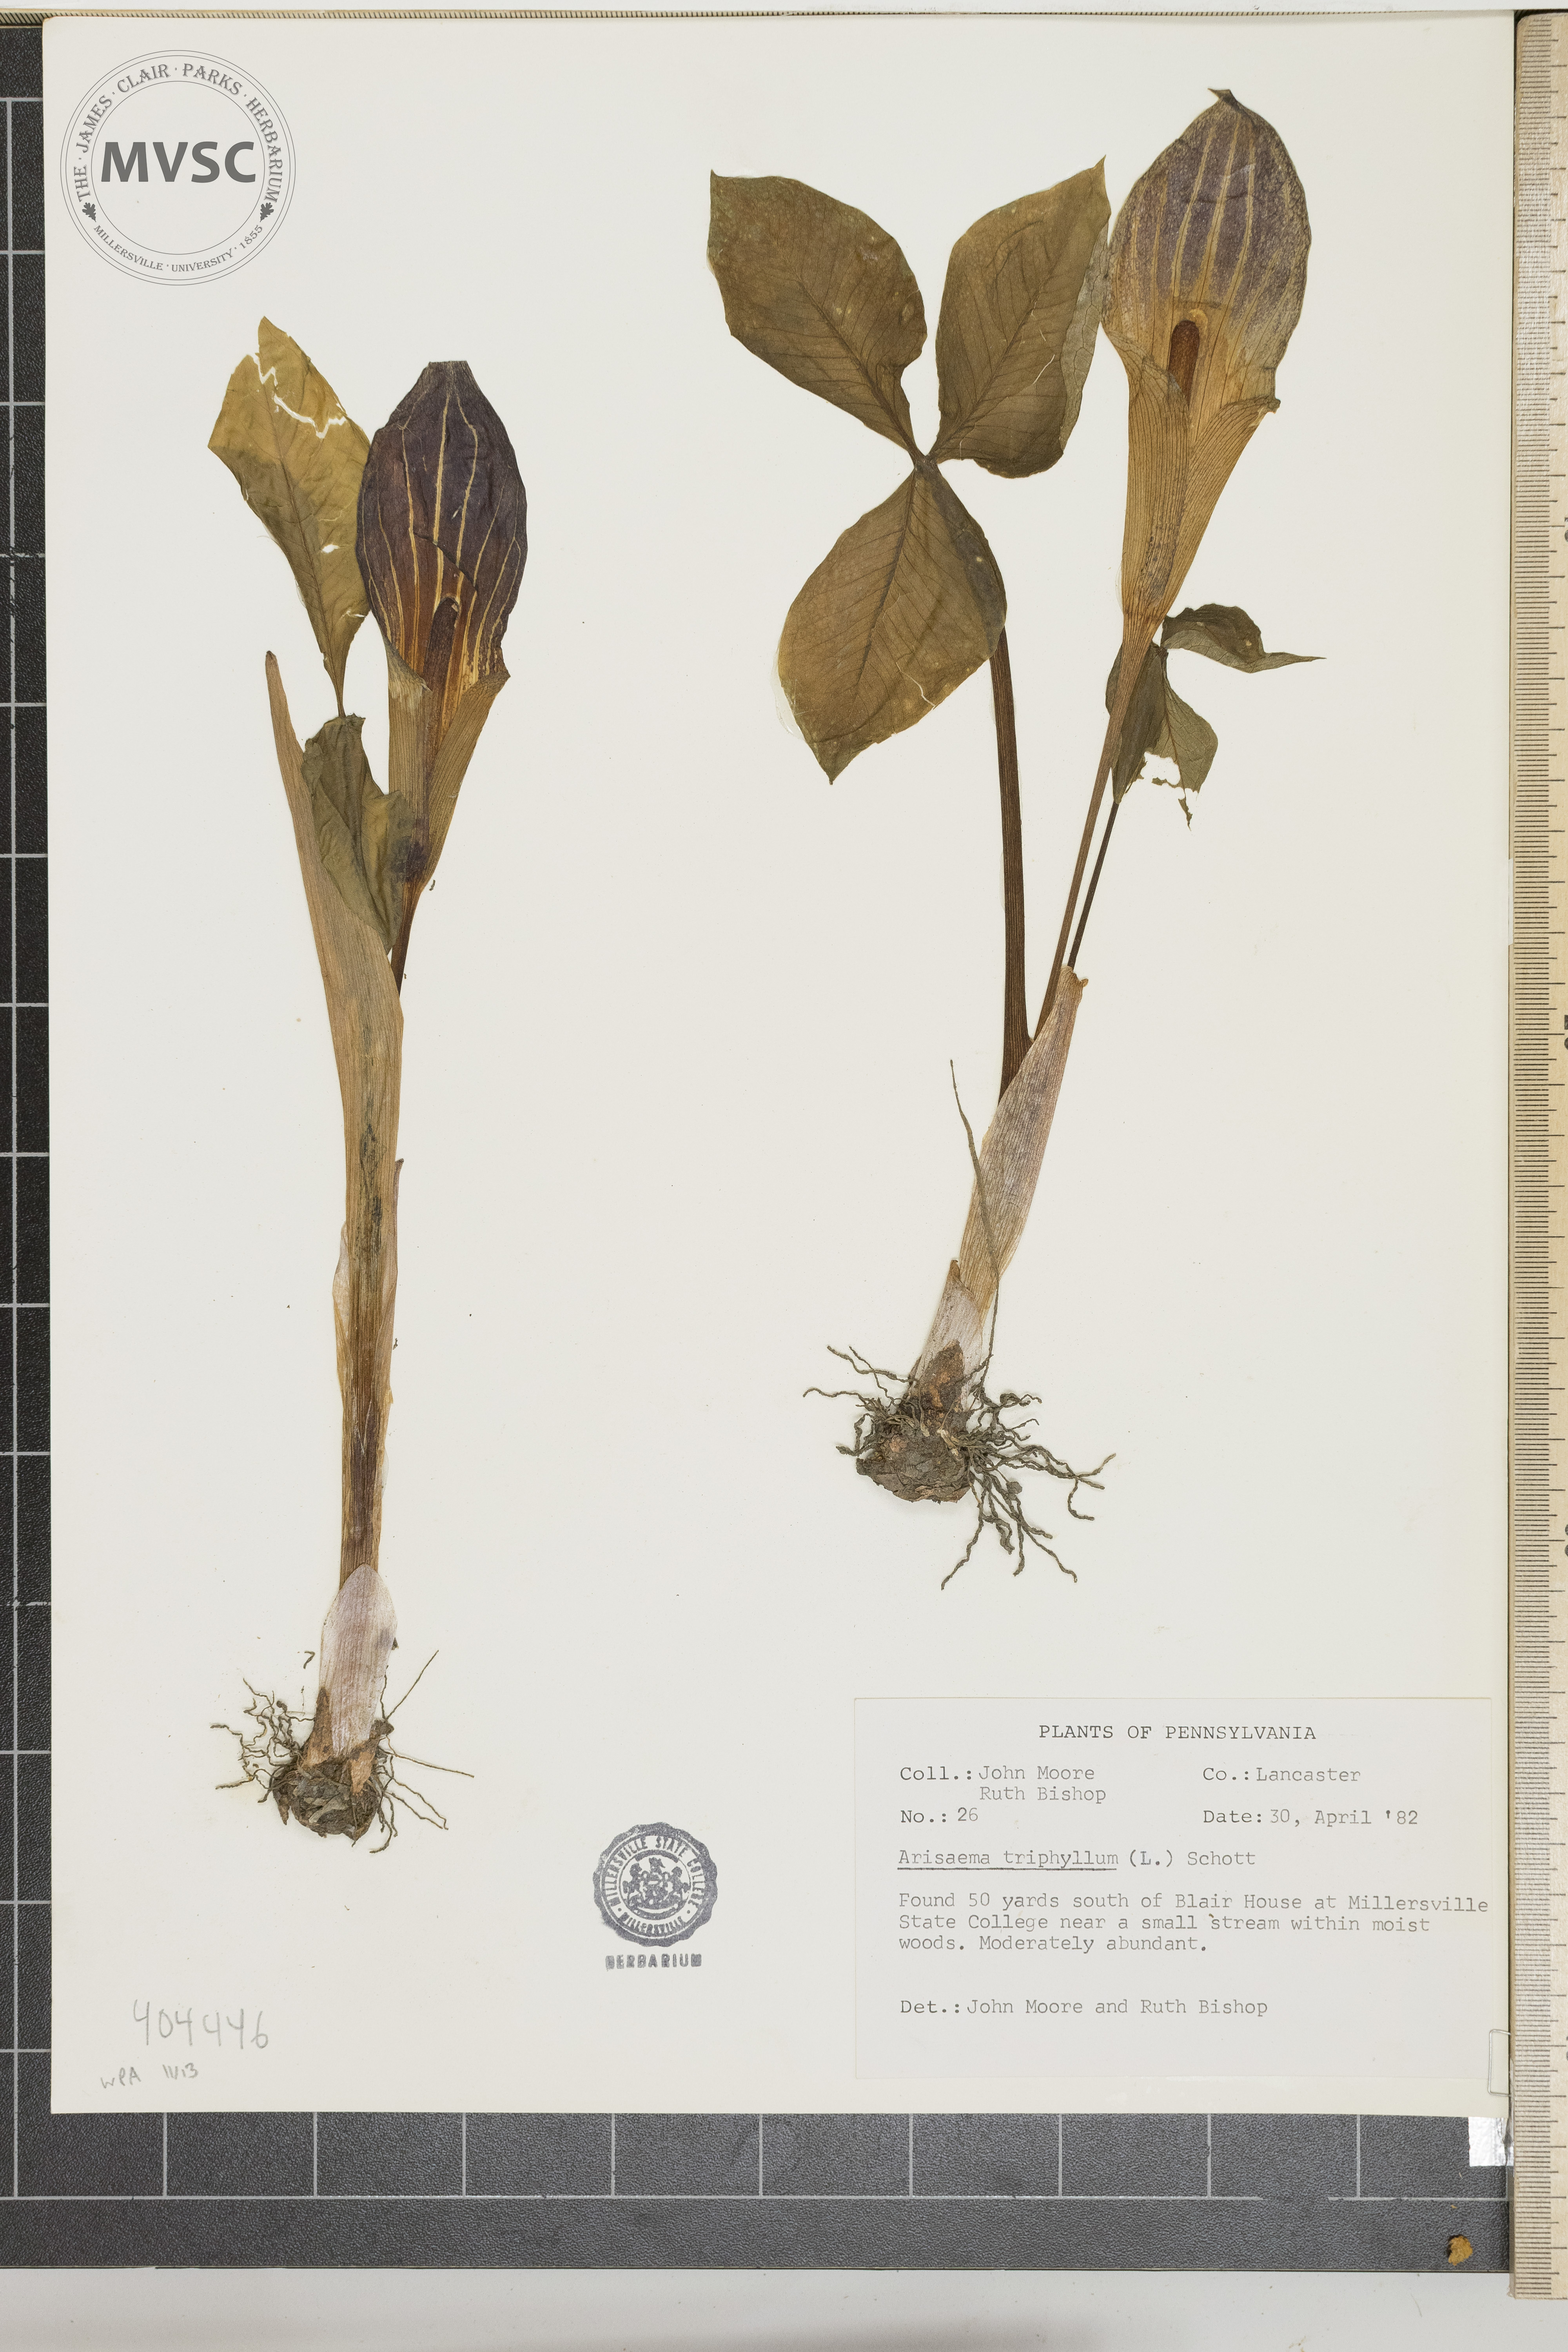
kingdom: Plantae
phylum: Tracheophyta
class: Liliopsida
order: Alismatales
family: Araceae
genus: Arisaema
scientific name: Arisaema triphyllum
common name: Jack-in-the-pulpit
